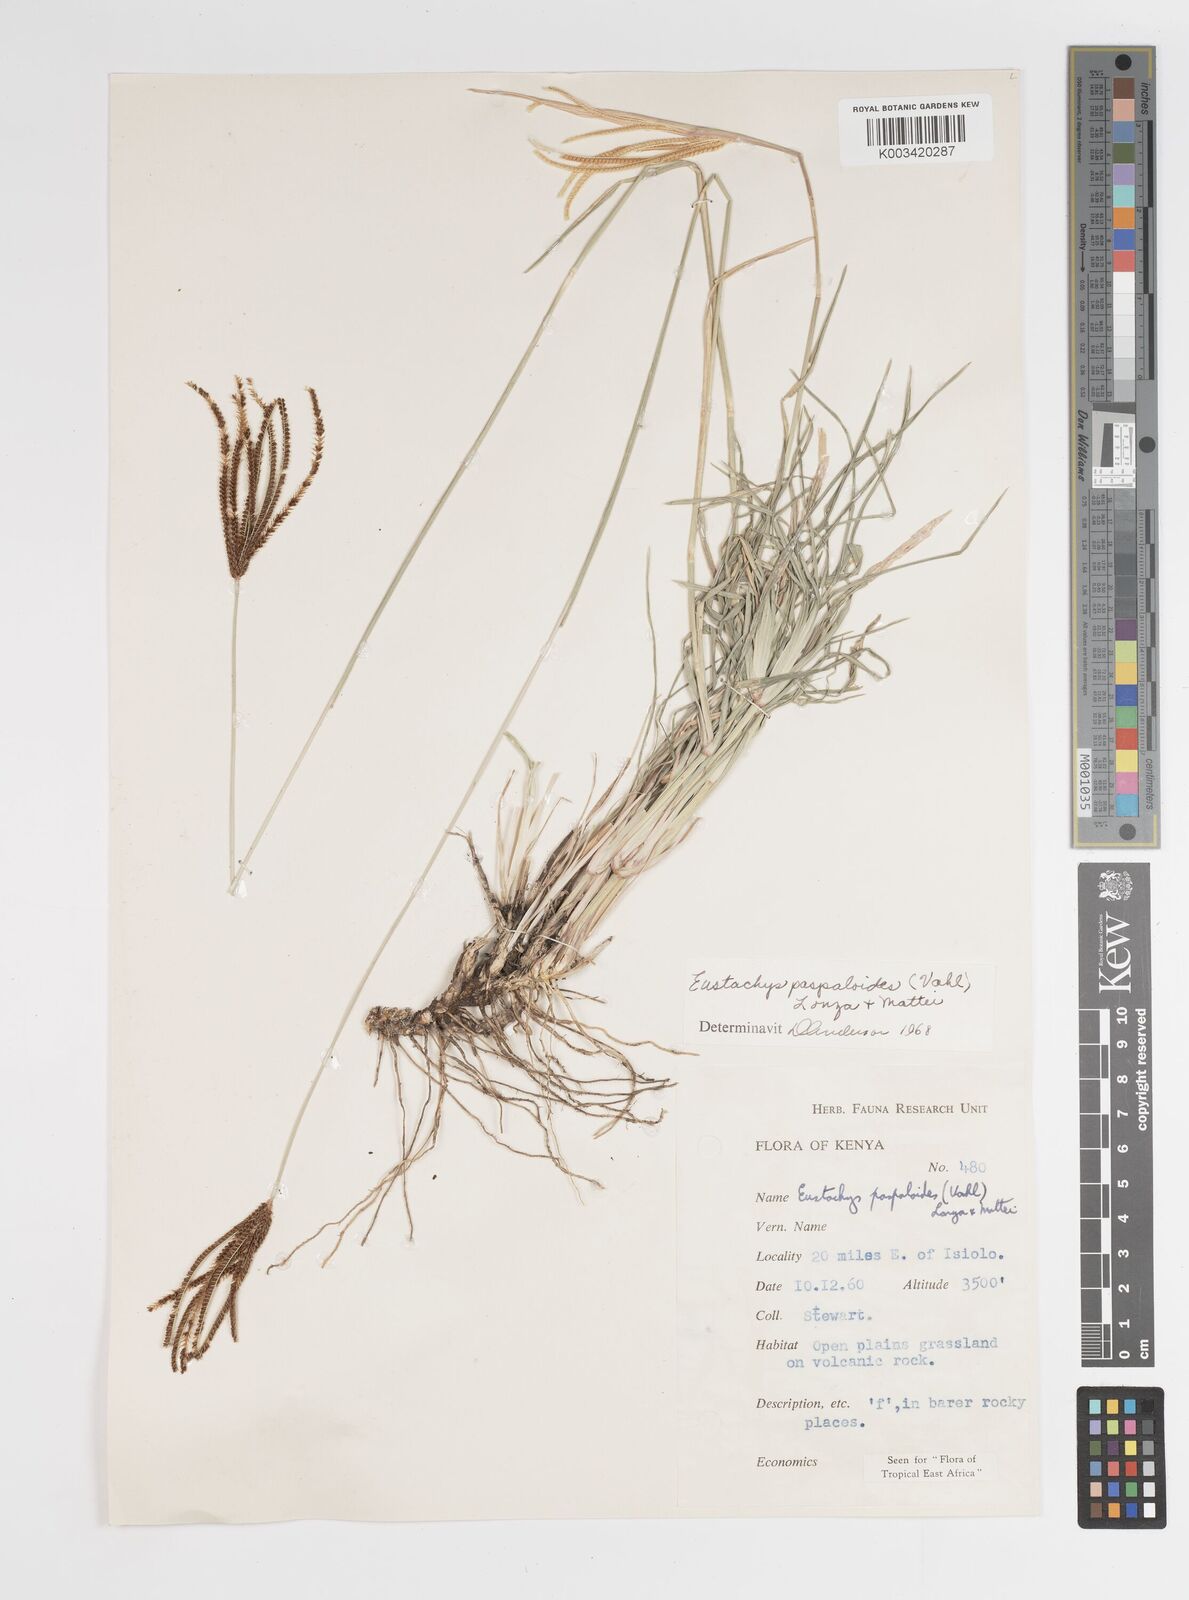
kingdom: Plantae
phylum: Tracheophyta
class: Liliopsida
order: Poales
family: Poaceae
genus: Eustachys
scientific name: Eustachys paspaloides
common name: Caribbean fingergrass
